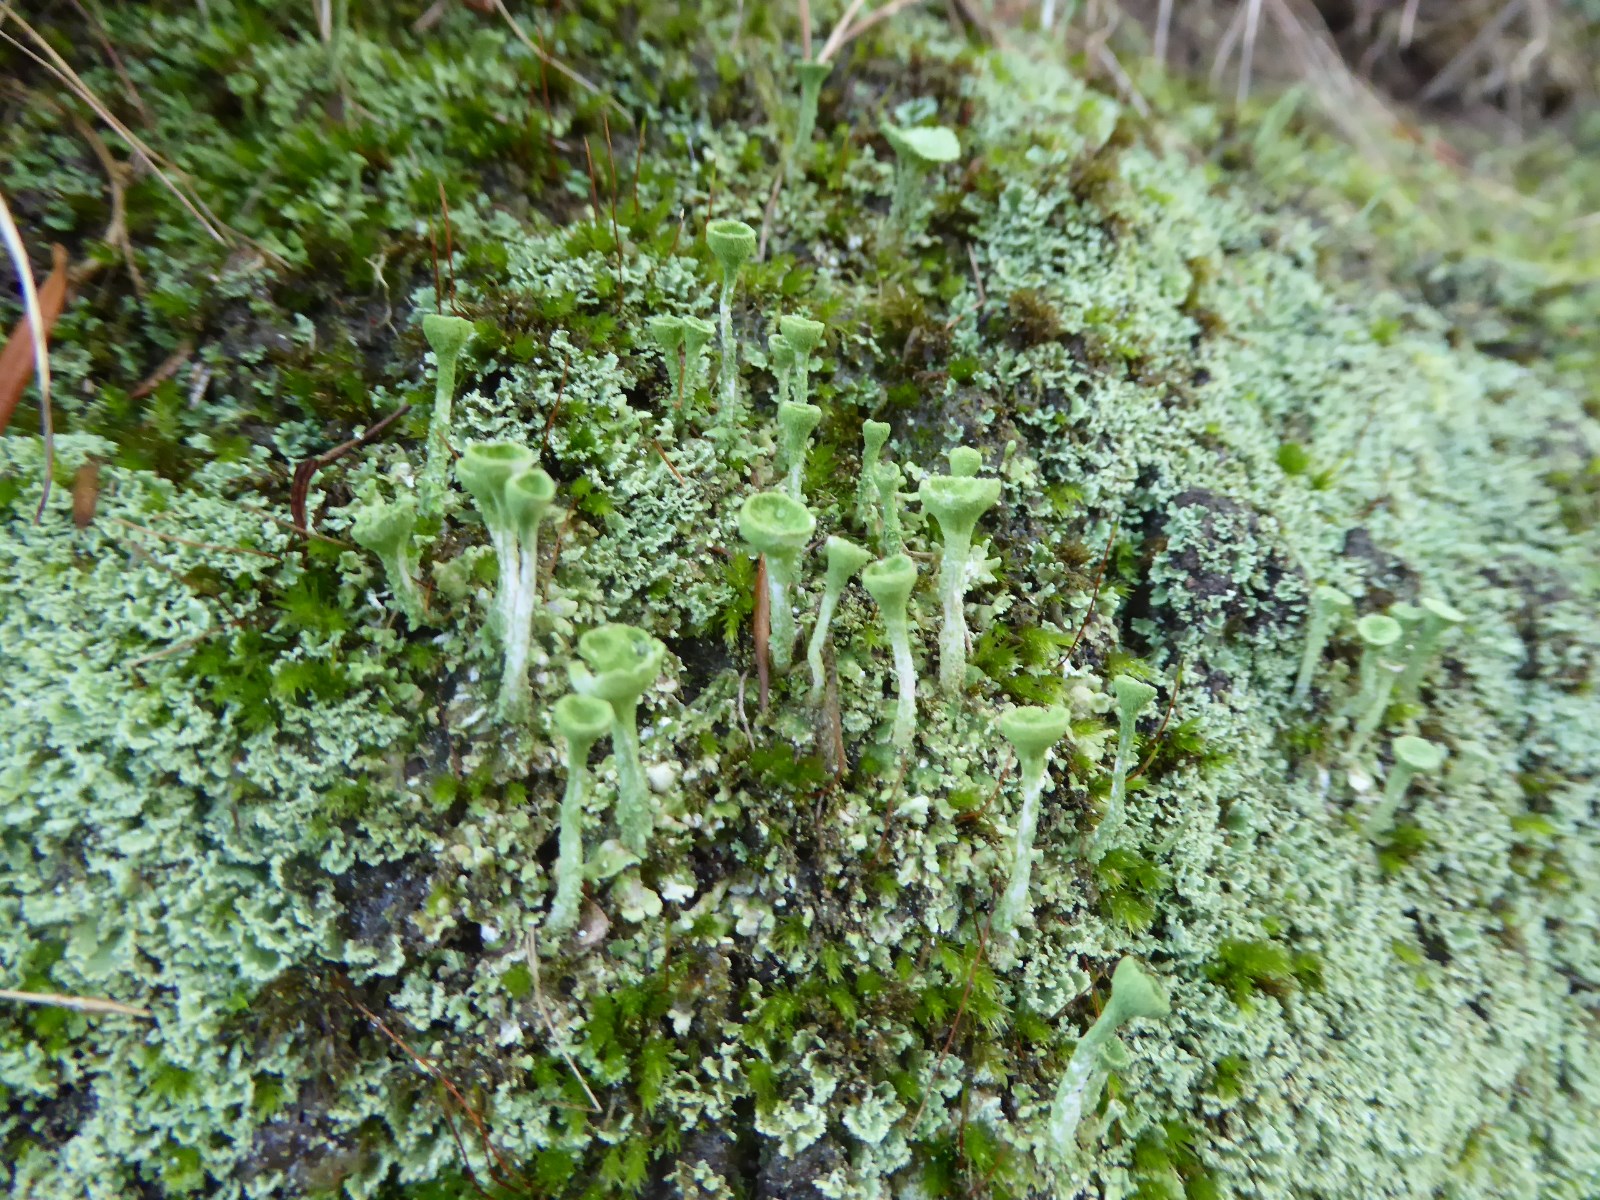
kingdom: Fungi
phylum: Ascomycota
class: Lecanoromycetes
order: Lecanorales
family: Cladoniaceae
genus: Cladonia
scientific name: Cladonia fimbriata
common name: bleggrøn bægerlav
